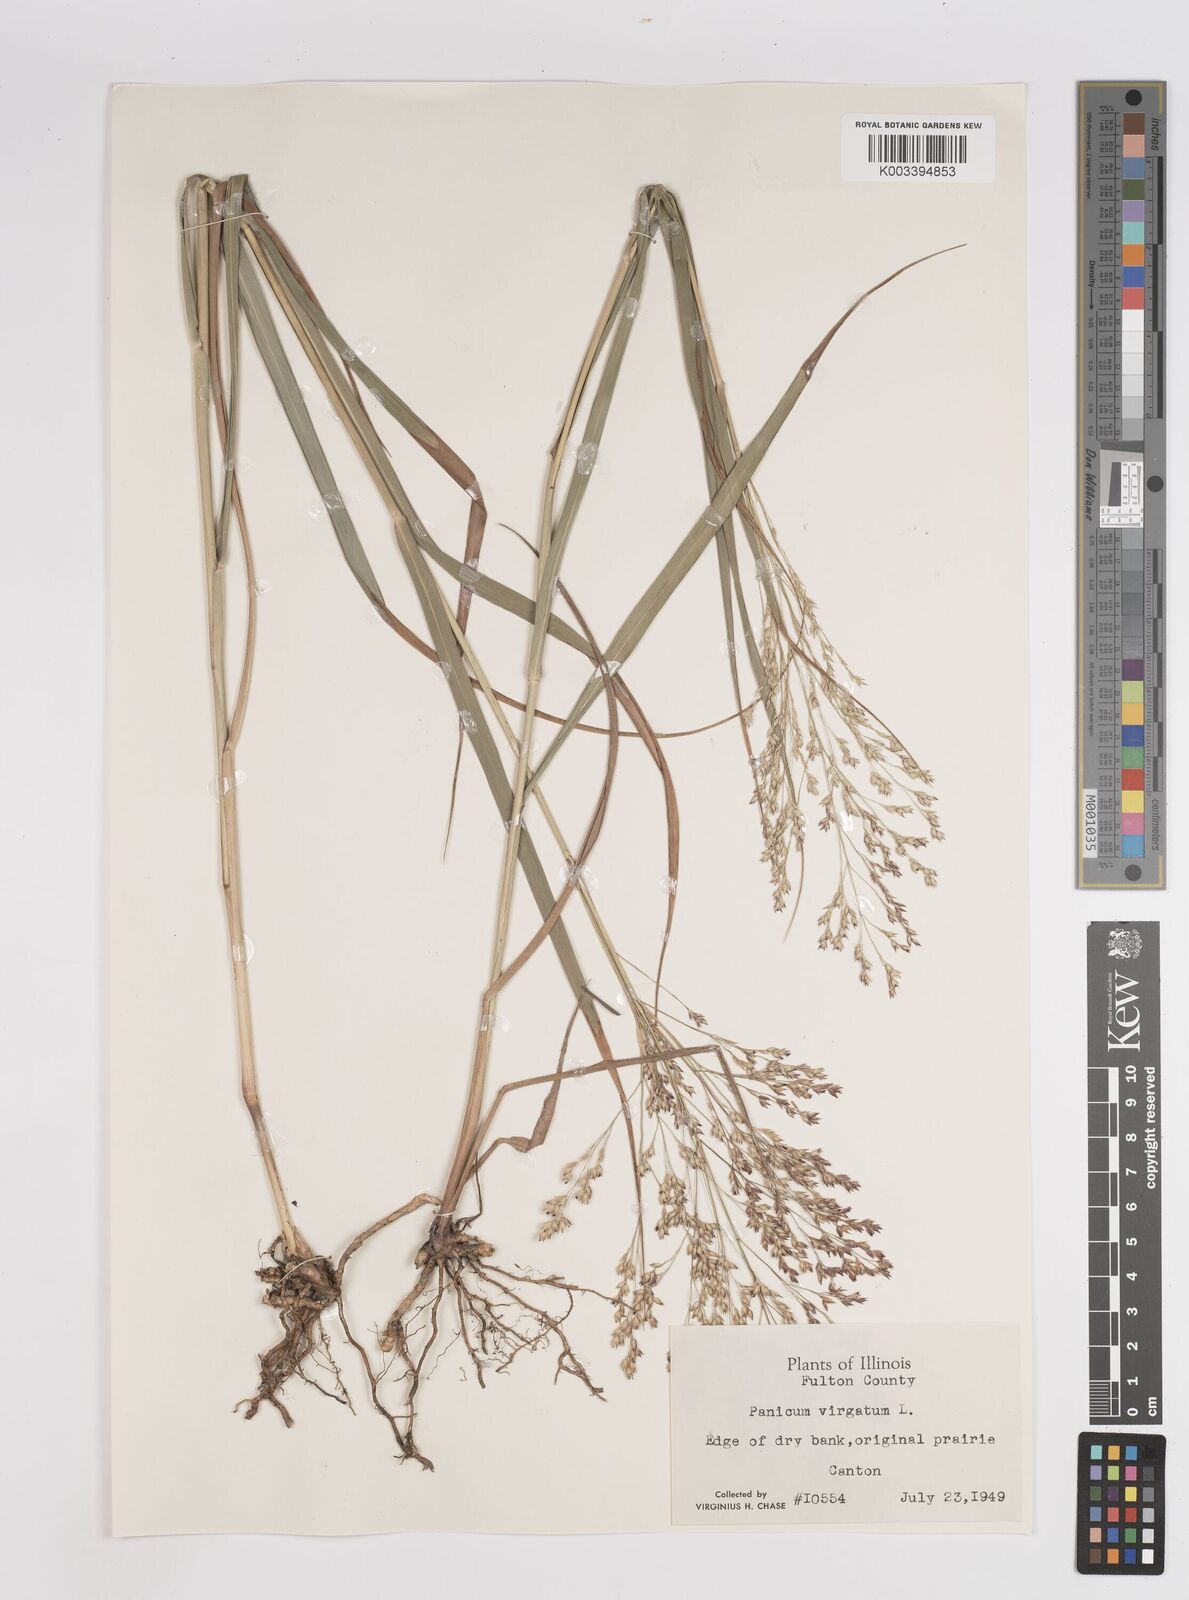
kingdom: Plantae
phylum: Tracheophyta
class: Liliopsida
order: Poales
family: Poaceae
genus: Panicum
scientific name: Panicum virgatum
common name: Switchgrass
